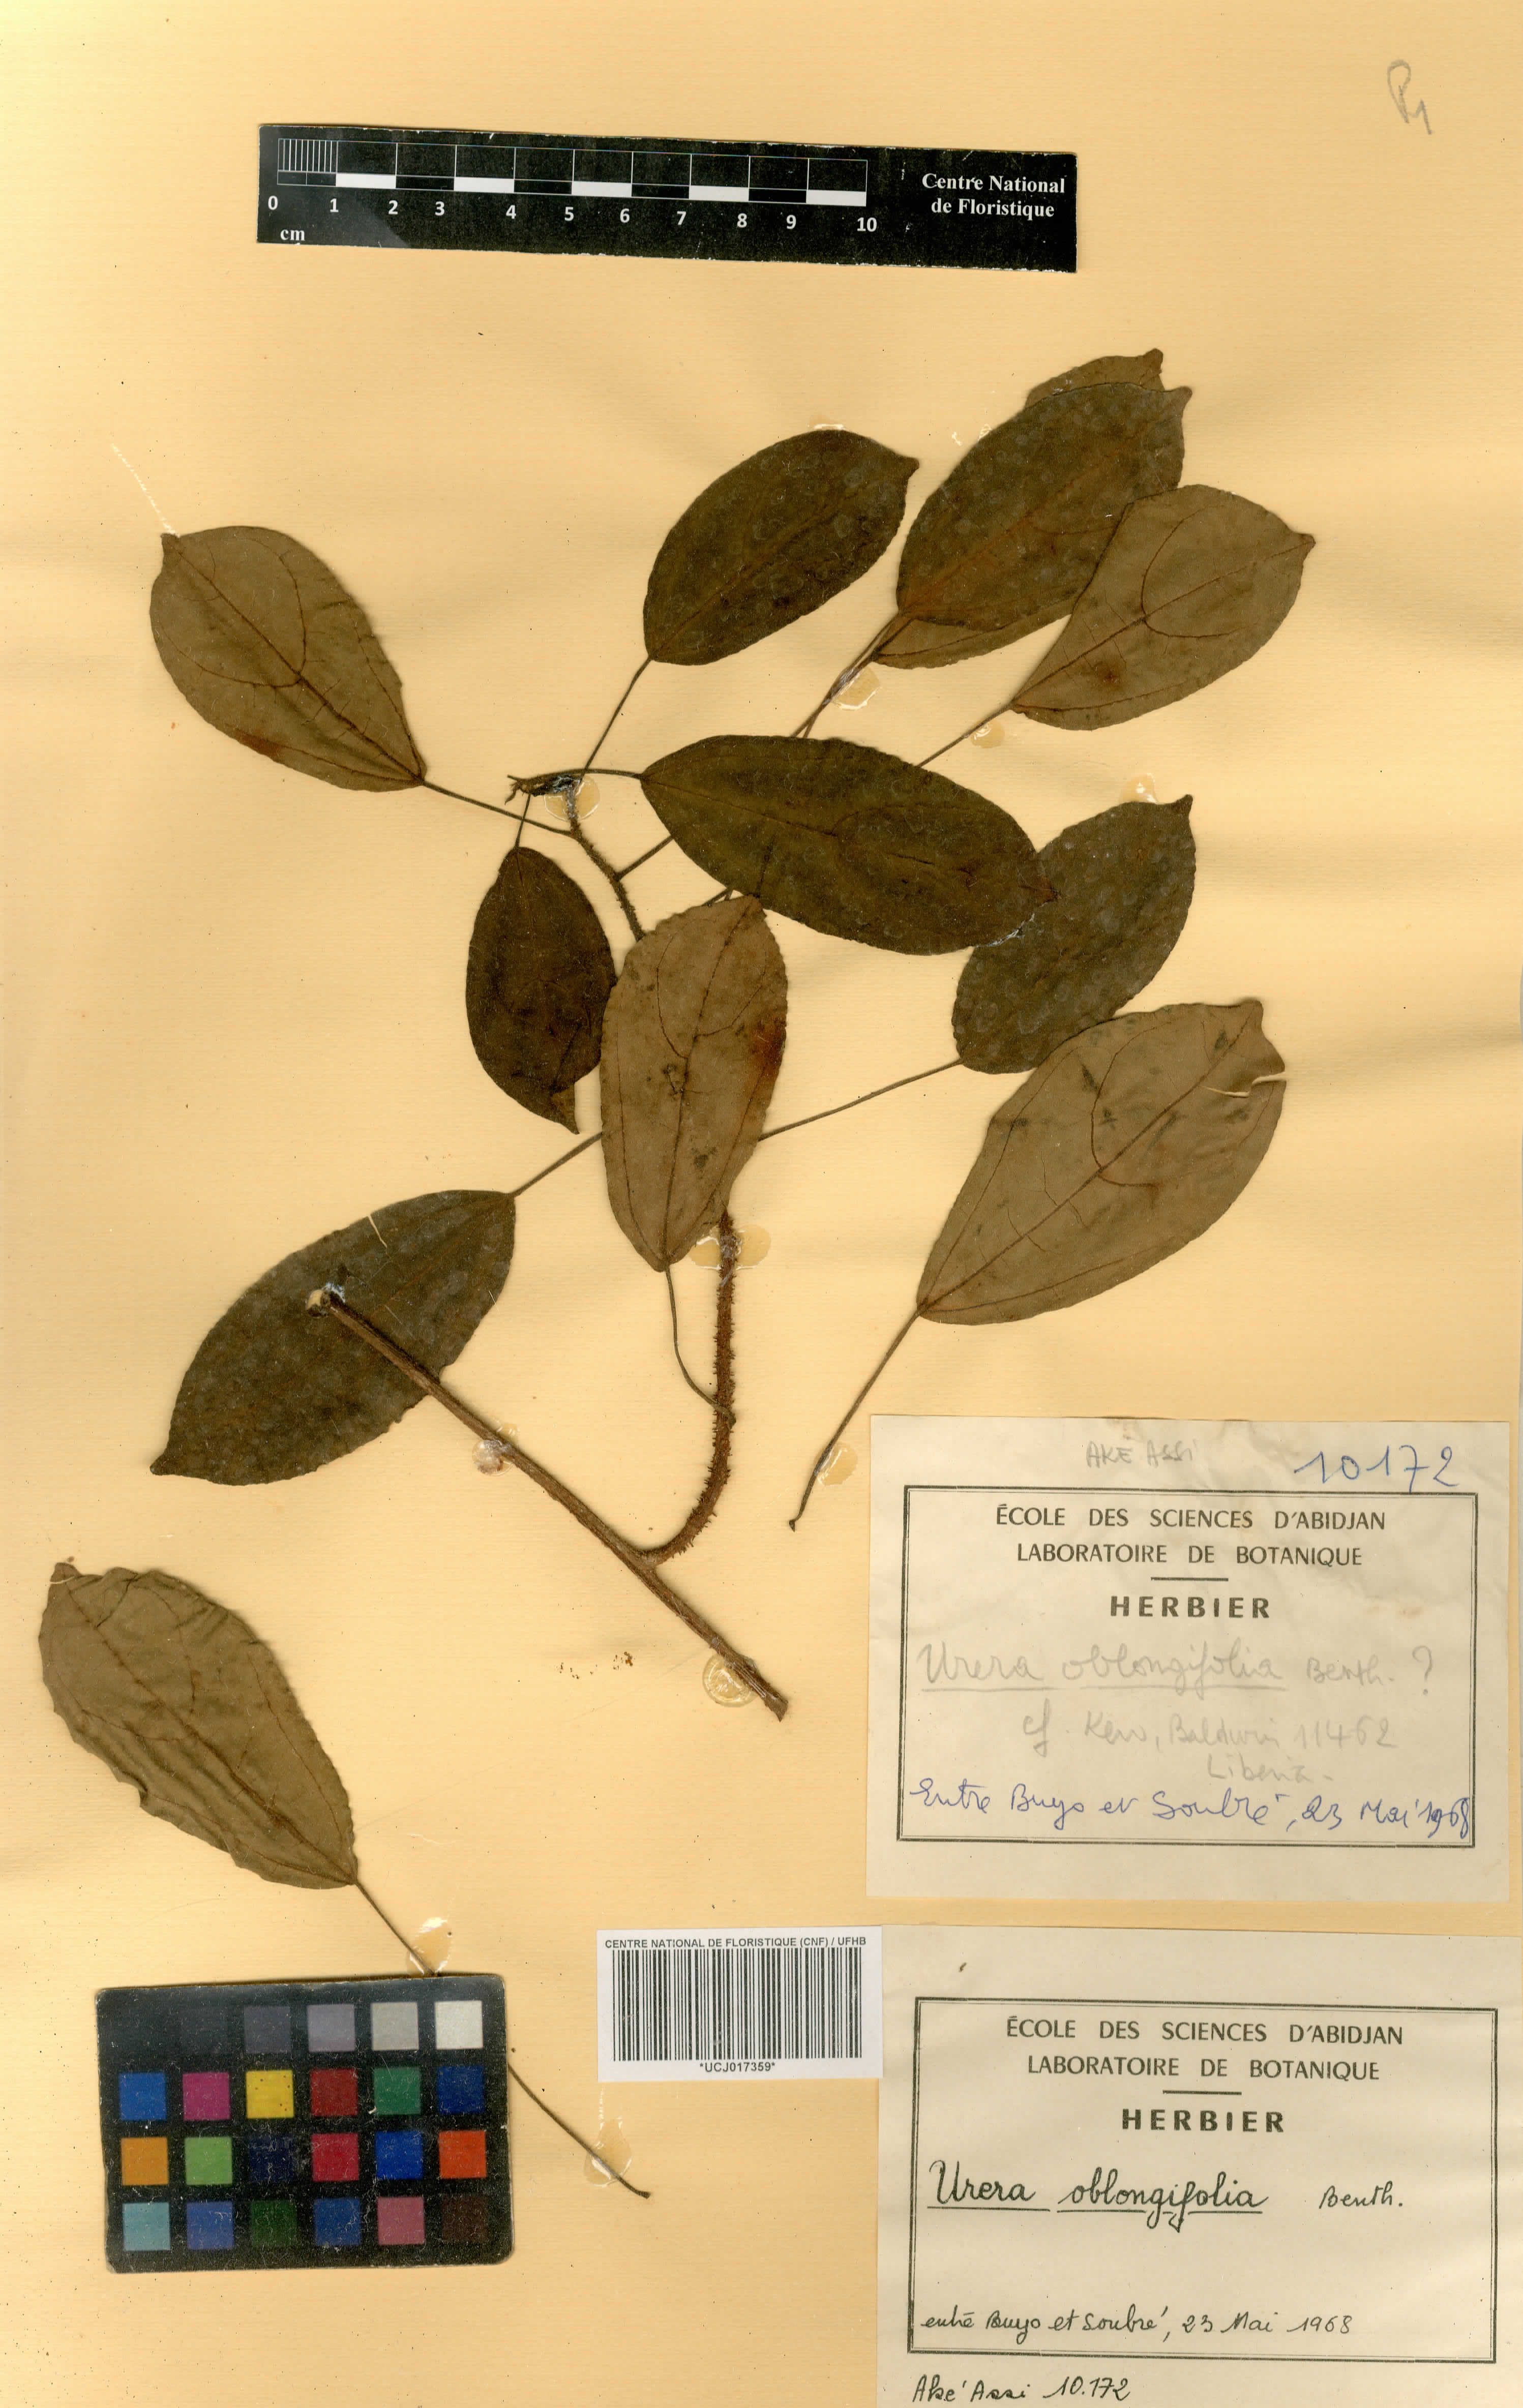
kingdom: Plantae
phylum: Tracheophyta
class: Magnoliopsida
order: Rosales
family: Urticaceae
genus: Scepocarpus
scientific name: Scepocarpus oblongifolius
